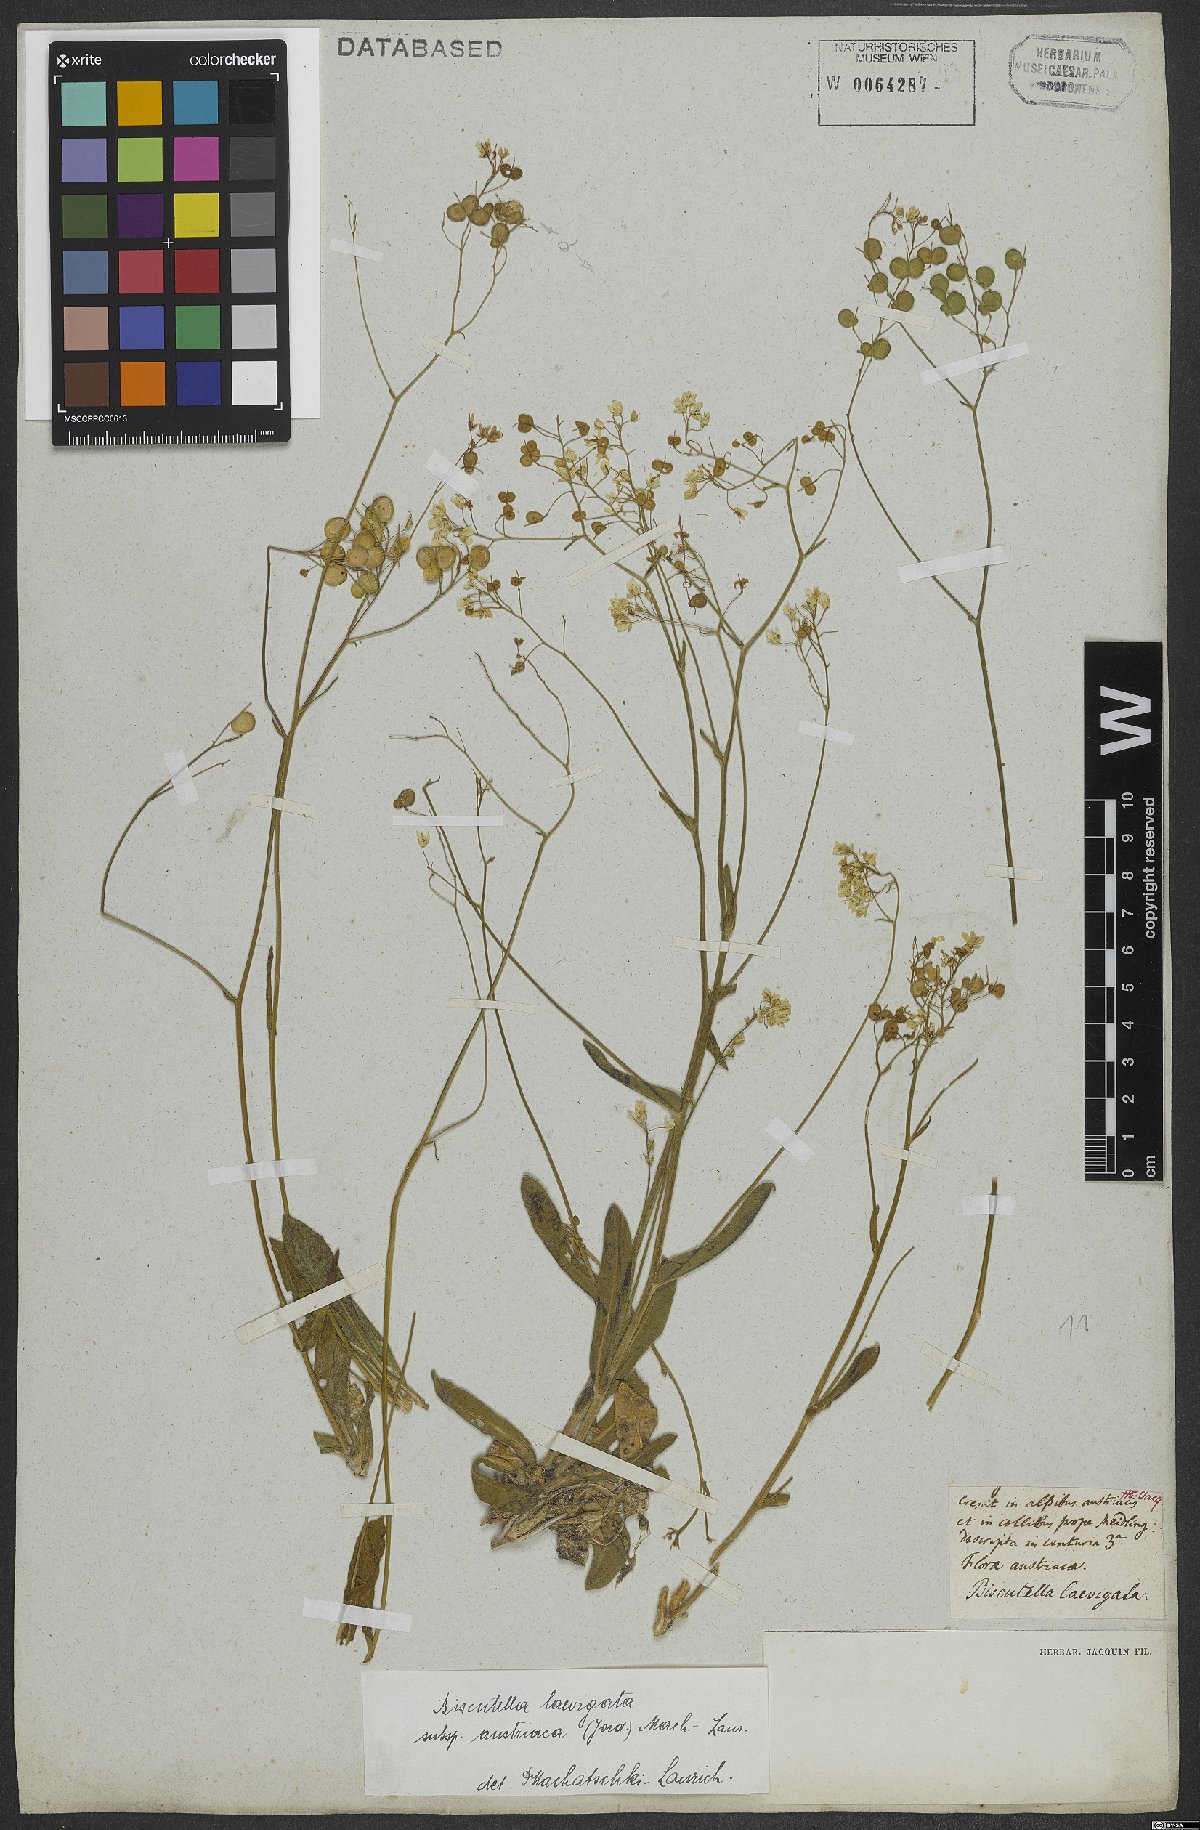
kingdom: Plantae
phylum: Tracheophyta
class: Magnoliopsida
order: Brassicales
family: Brassicaceae
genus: Biscutella
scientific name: Biscutella laevigata
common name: Buckler mustard
